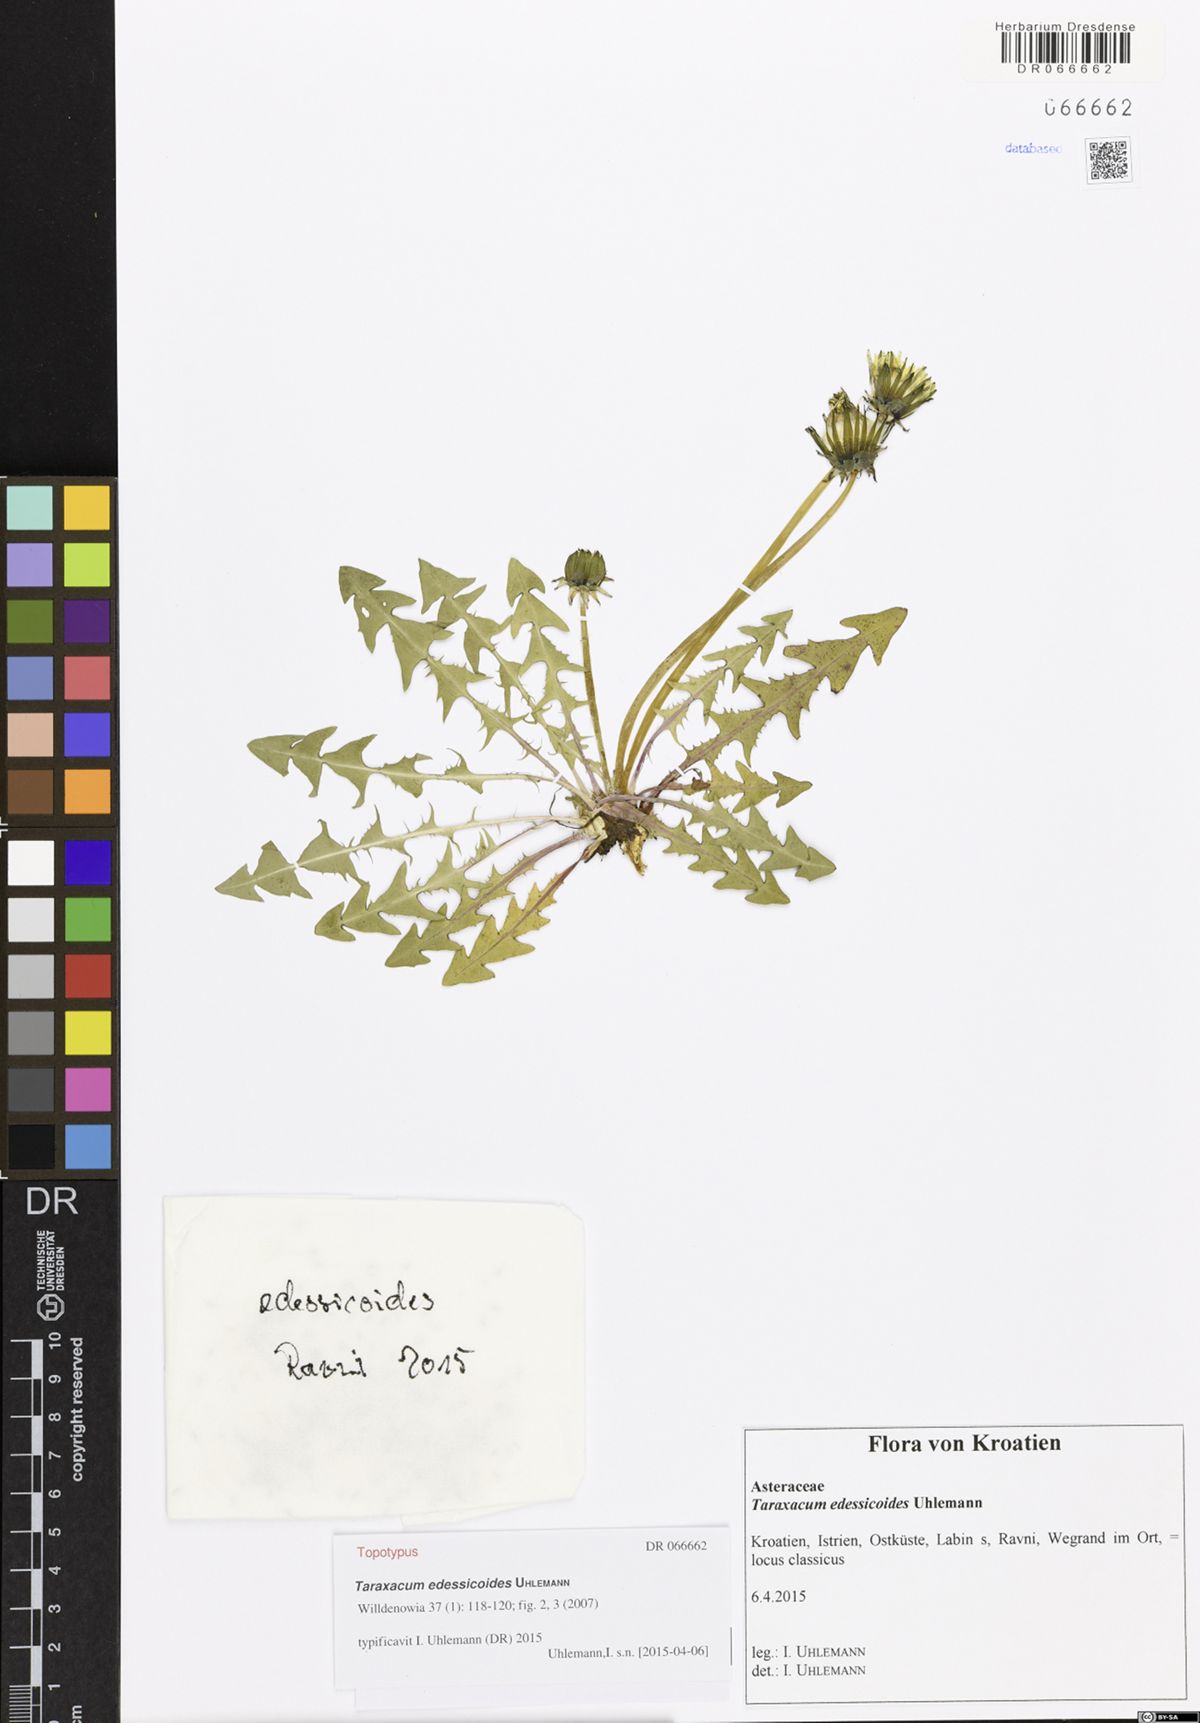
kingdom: Plantae
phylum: Tracheophyta
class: Magnoliopsida
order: Asterales
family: Asteraceae
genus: Taraxacum
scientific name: Taraxacum edessicoides
